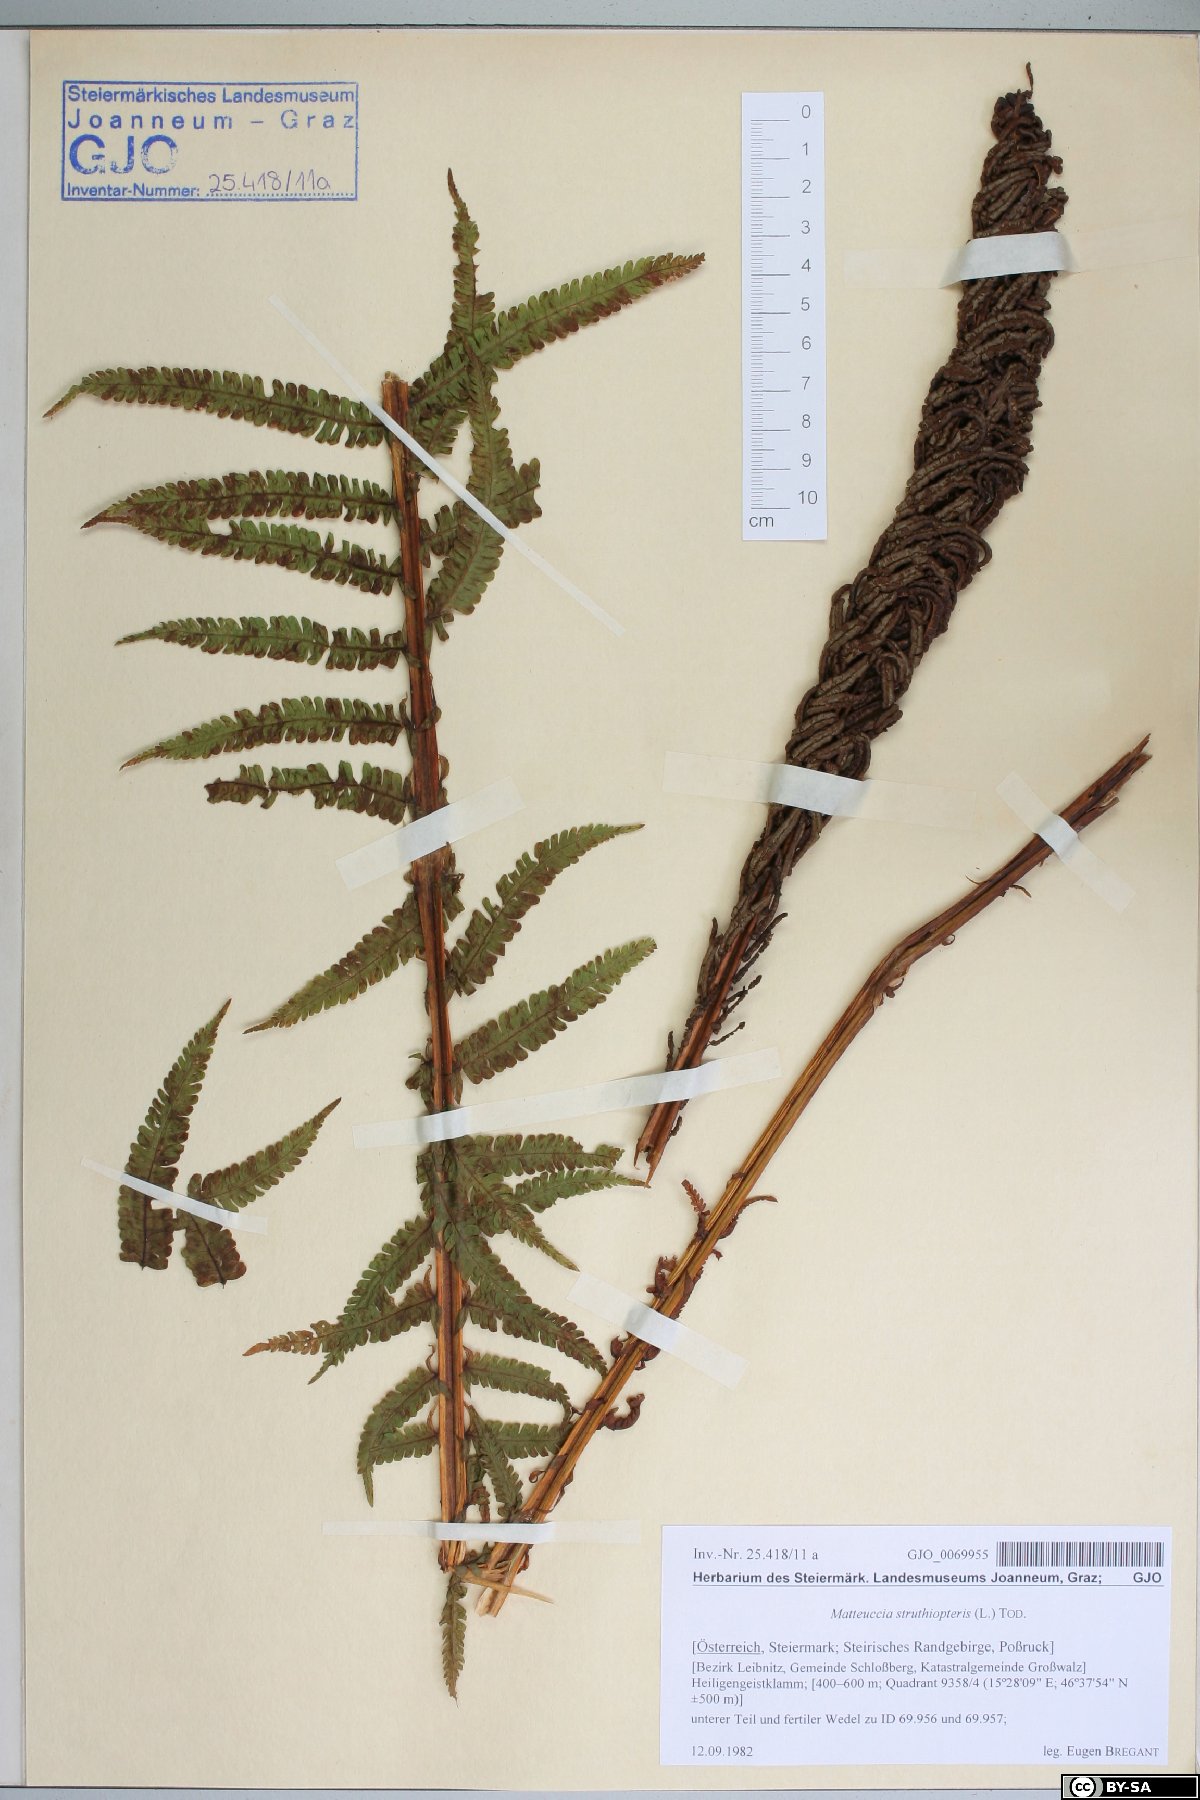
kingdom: Plantae
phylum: Tracheophyta
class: Polypodiopsida
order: Polypodiales
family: Onocleaceae
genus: Matteuccia
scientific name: Matteuccia struthiopteris
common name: Ostrich fern
